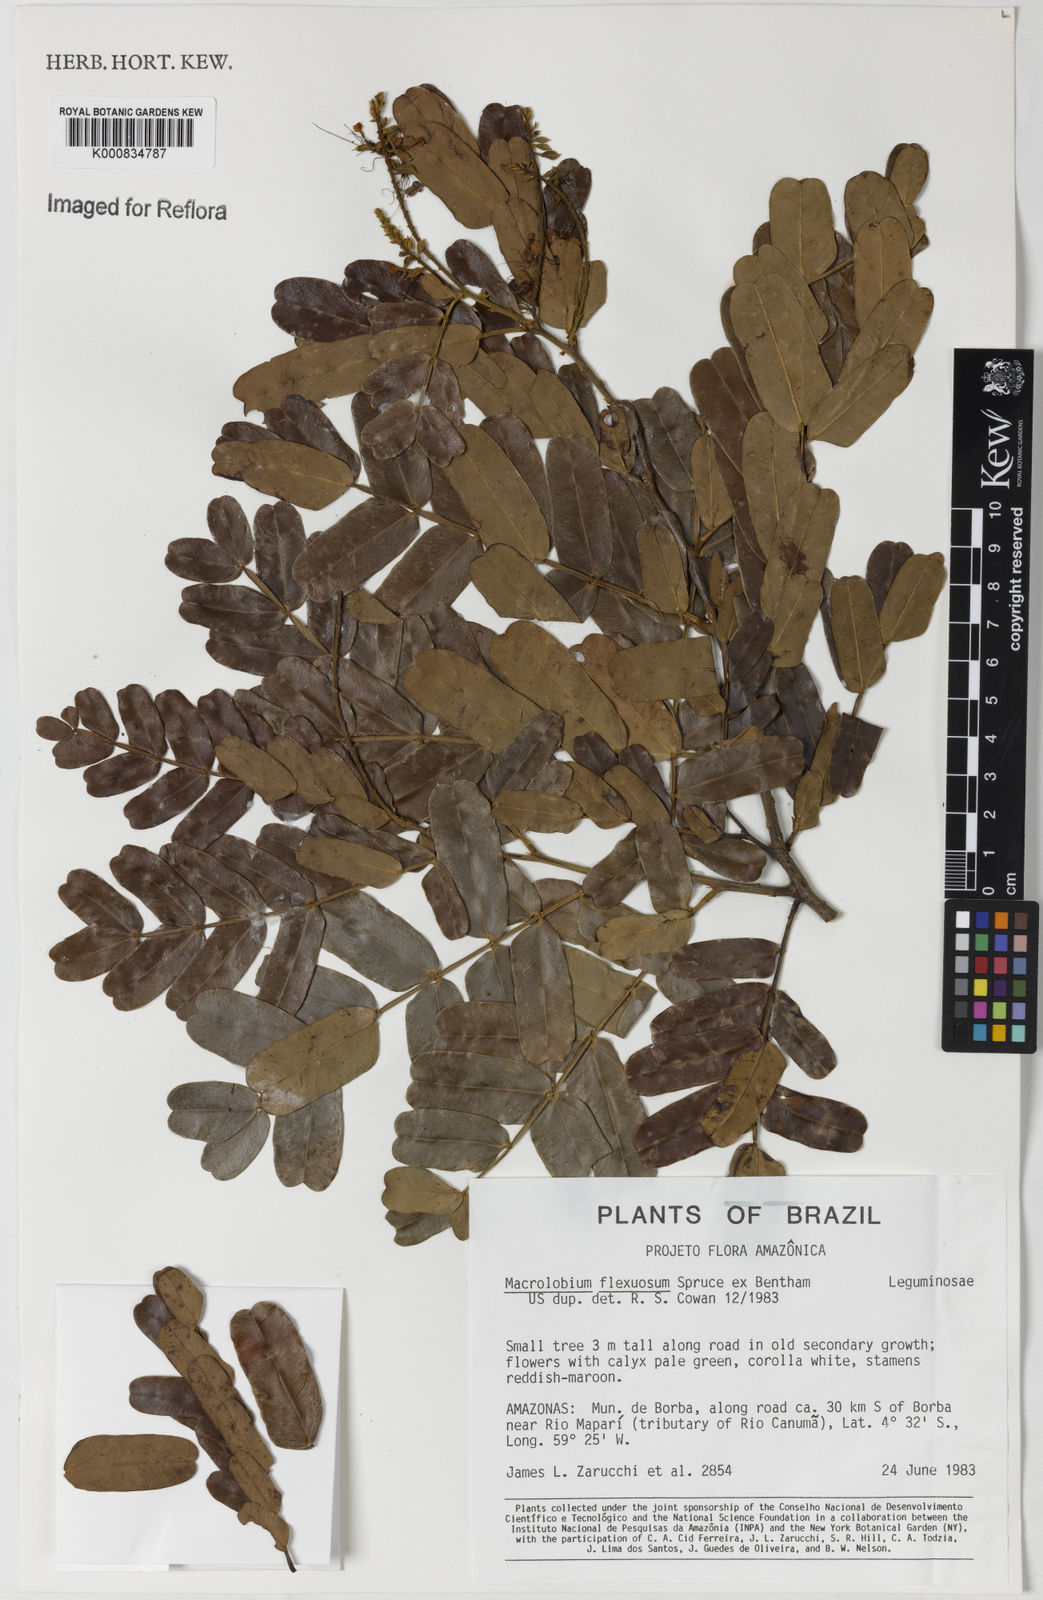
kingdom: Plantae
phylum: Tracheophyta
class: Magnoliopsida
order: Fabales
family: Fabaceae
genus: Macrolobium
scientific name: Macrolobium
